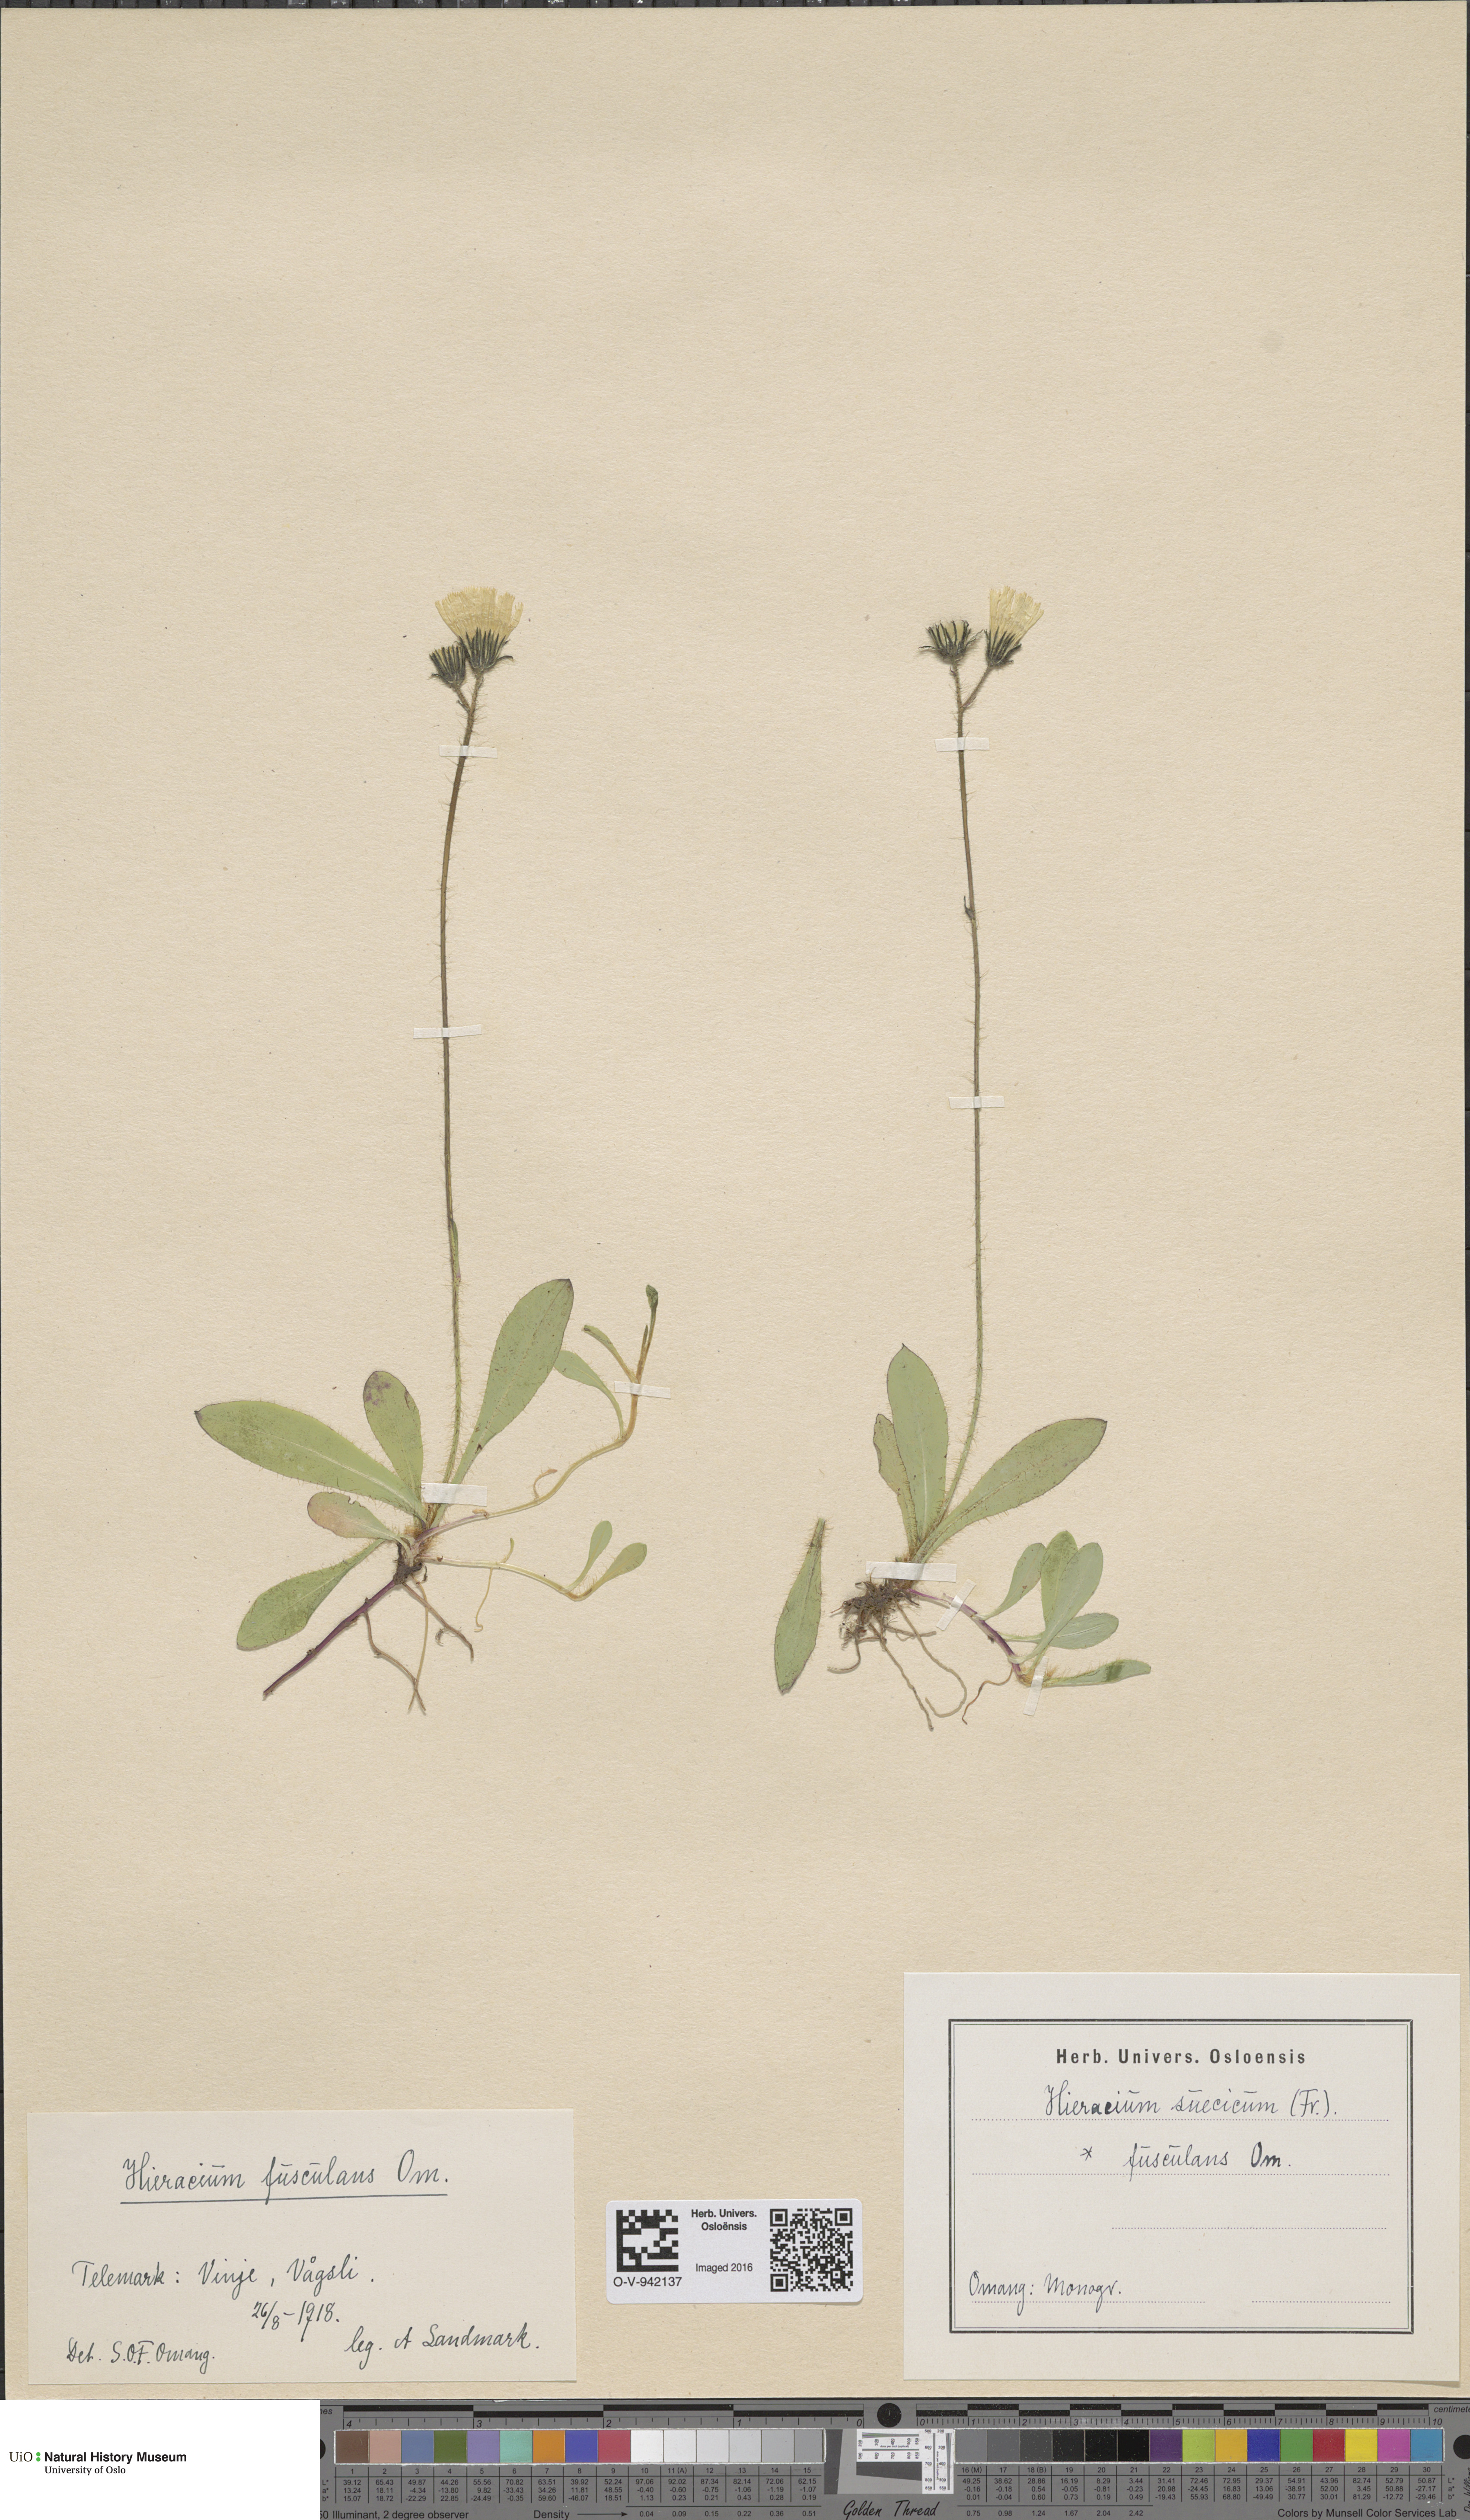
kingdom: Plantae
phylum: Tracheophyta
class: Magnoliopsida
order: Asterales
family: Asteraceae
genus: Pilosella
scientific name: Pilosella dubia
